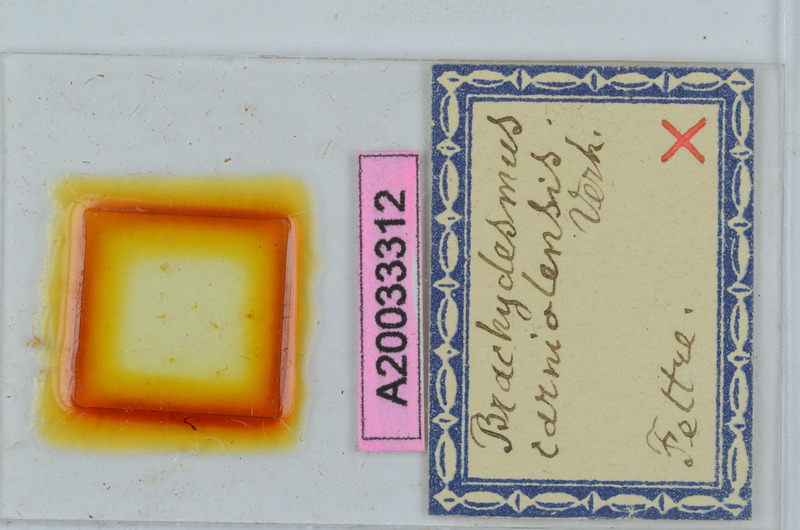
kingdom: Animalia
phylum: Arthropoda
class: Diplopoda
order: Polydesmida
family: Polydesmidae
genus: Brachydesmus
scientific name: Brachydesmus carniolensis
